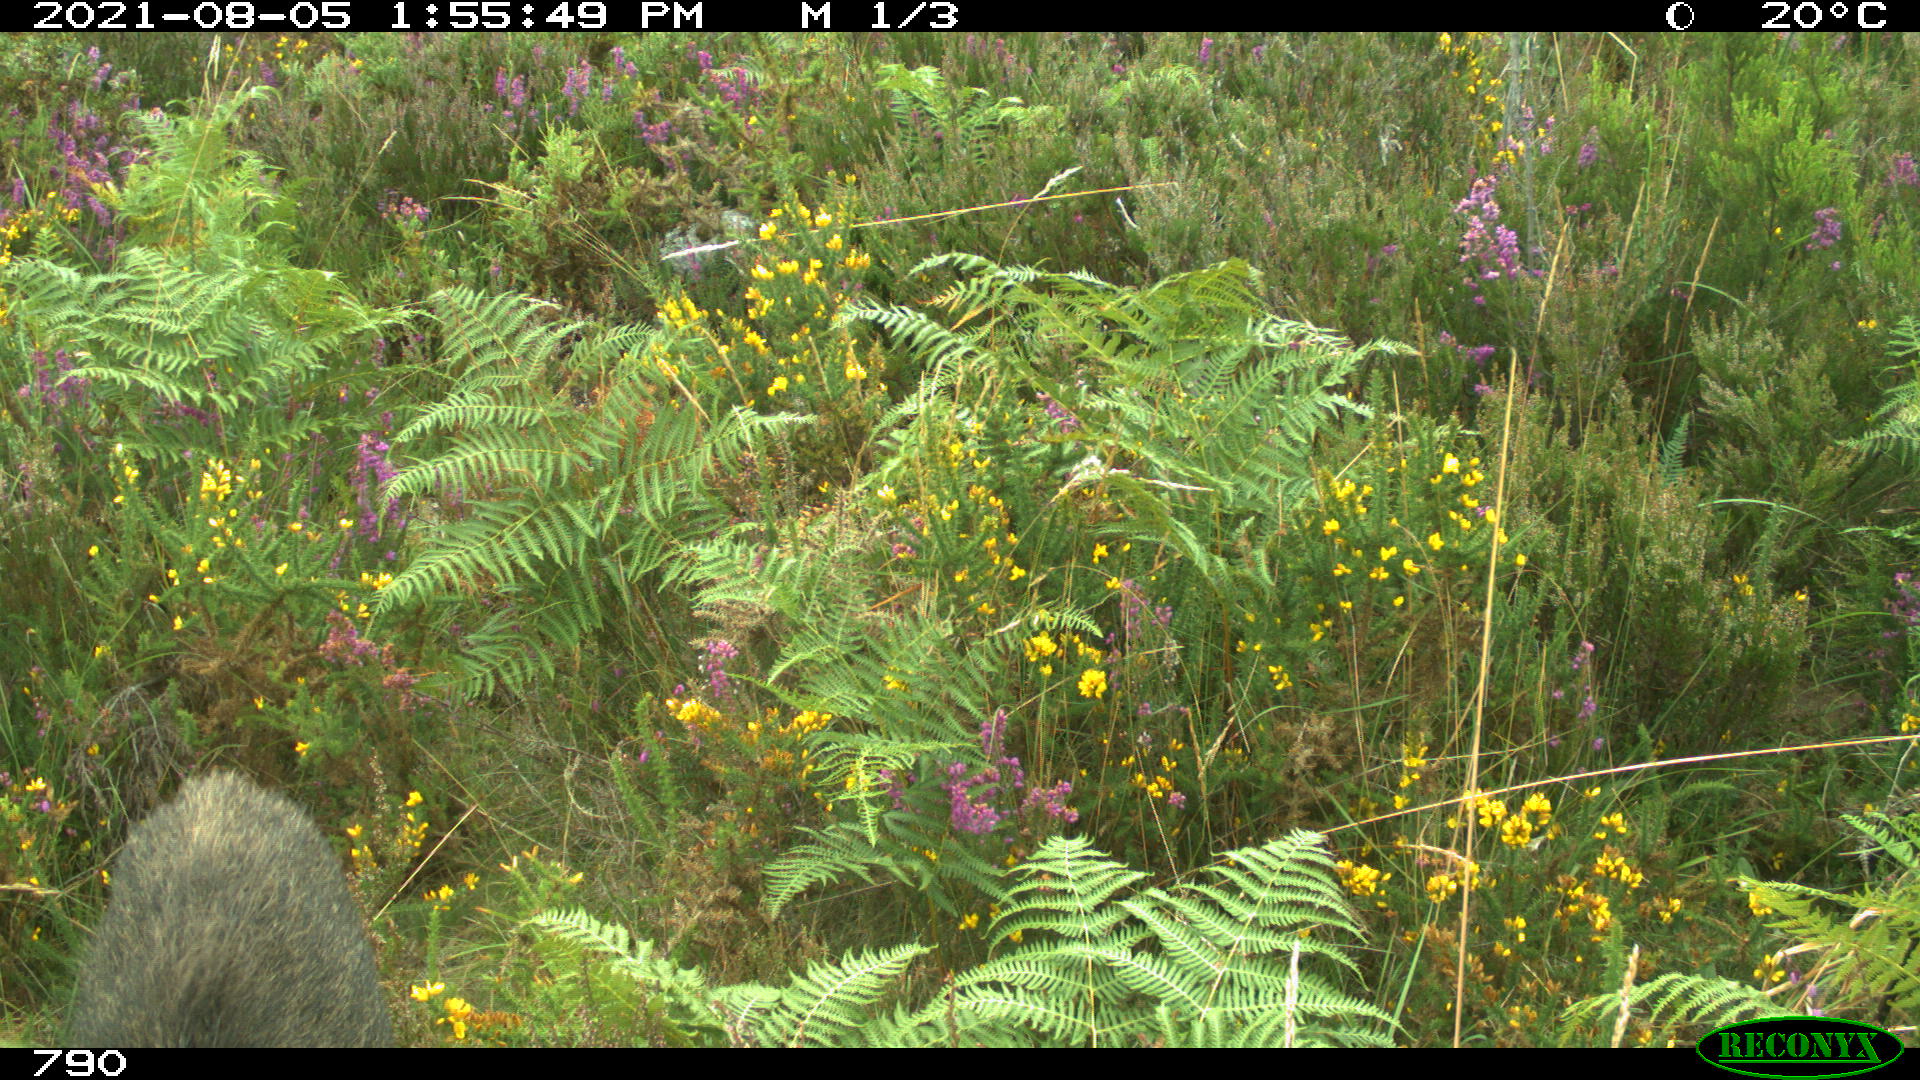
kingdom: Animalia
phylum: Chordata
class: Mammalia
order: Artiodactyla
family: Suidae
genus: Sus
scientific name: Sus scrofa
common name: Wild boar
